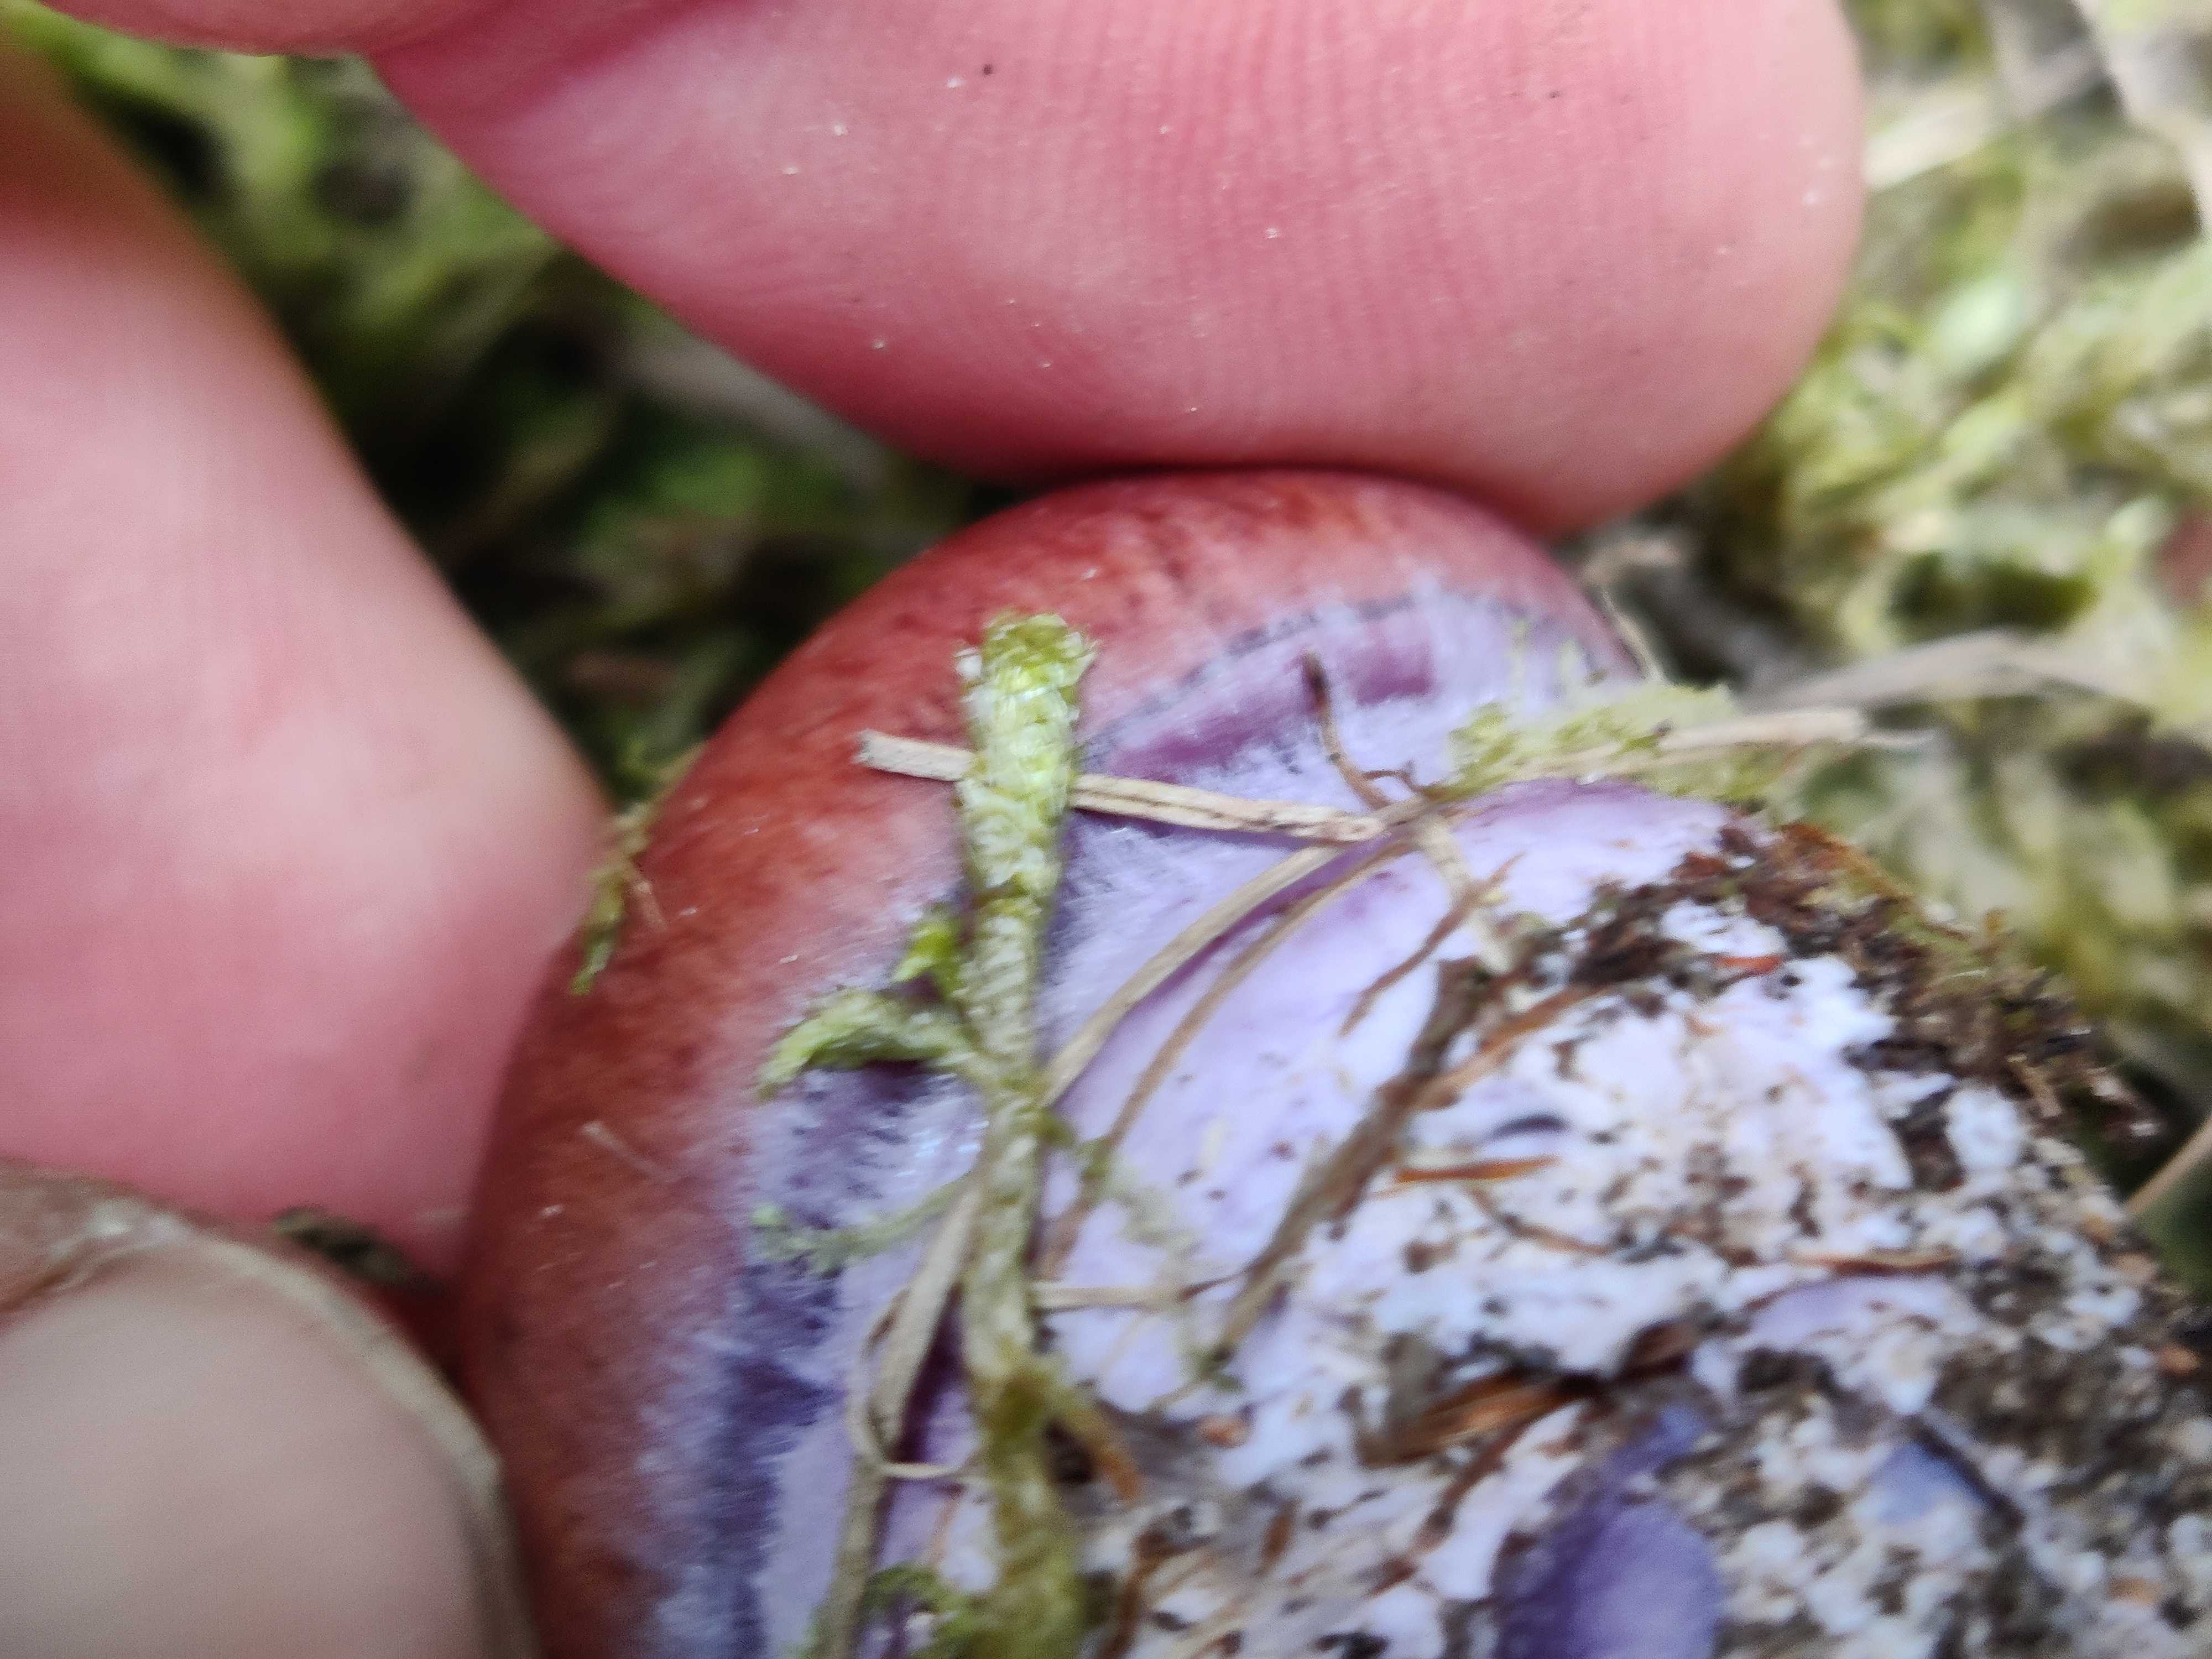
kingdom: Fungi
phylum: Basidiomycota
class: Agaricomycetes
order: Agaricales
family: Cortinariaceae
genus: Thaxterogaster
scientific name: Thaxterogaster purpurascens
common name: purpurbrun slørhat
